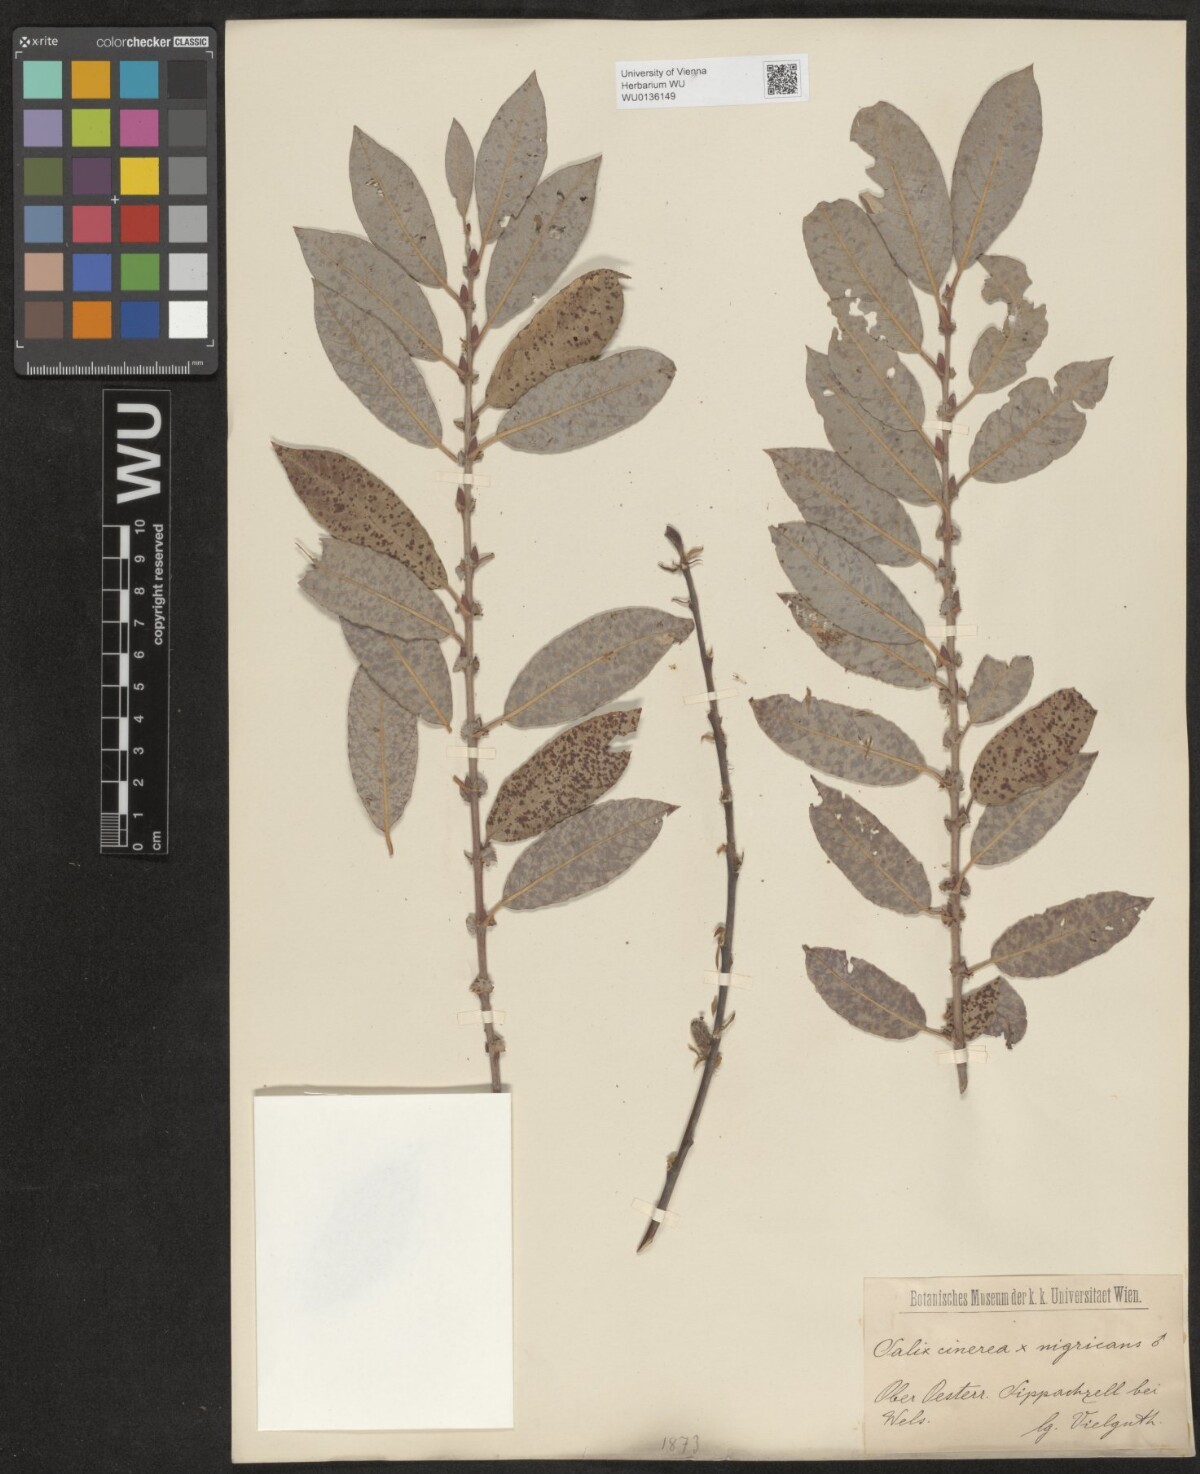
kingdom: Plantae
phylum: Tracheophyta
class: Magnoliopsida
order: Malpighiales
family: Salicaceae
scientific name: Salicaceae
